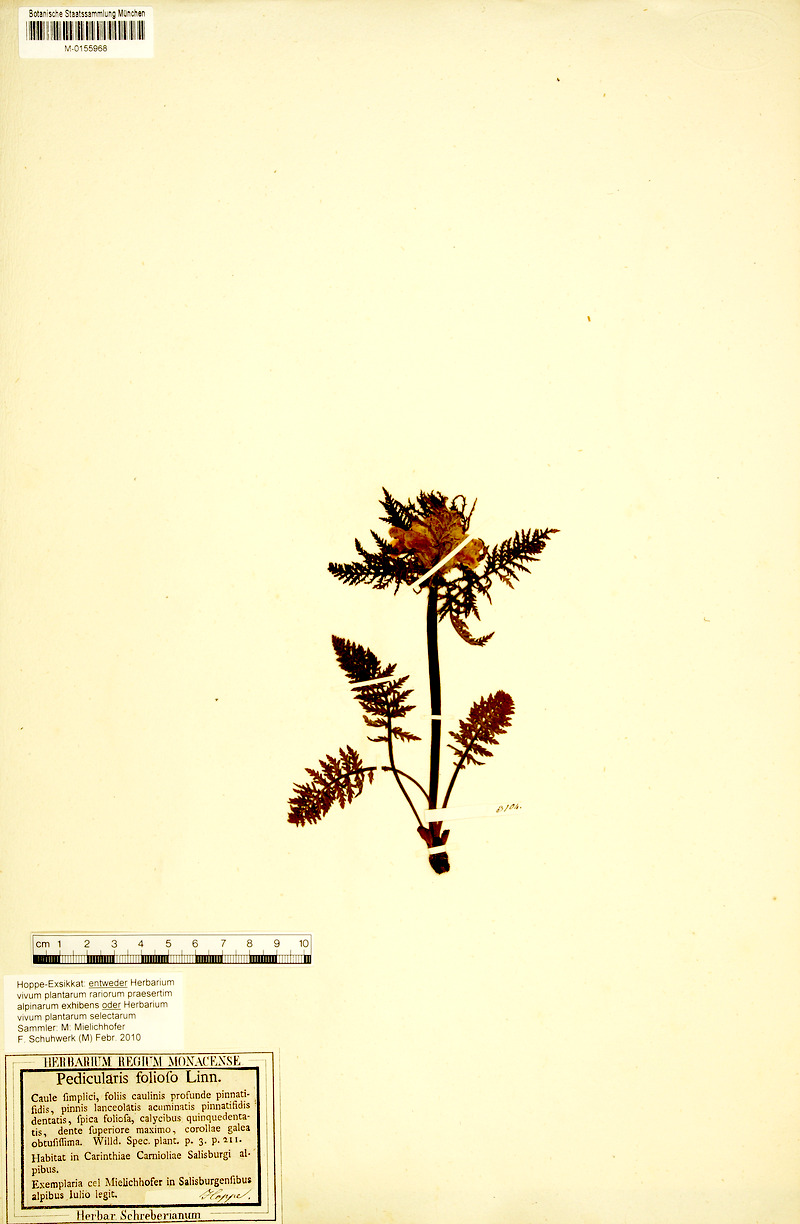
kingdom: Plantae
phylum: Tracheophyta
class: Magnoliopsida
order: Lamiales
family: Orobanchaceae
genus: Pedicularis
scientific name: Pedicularis foliosa
